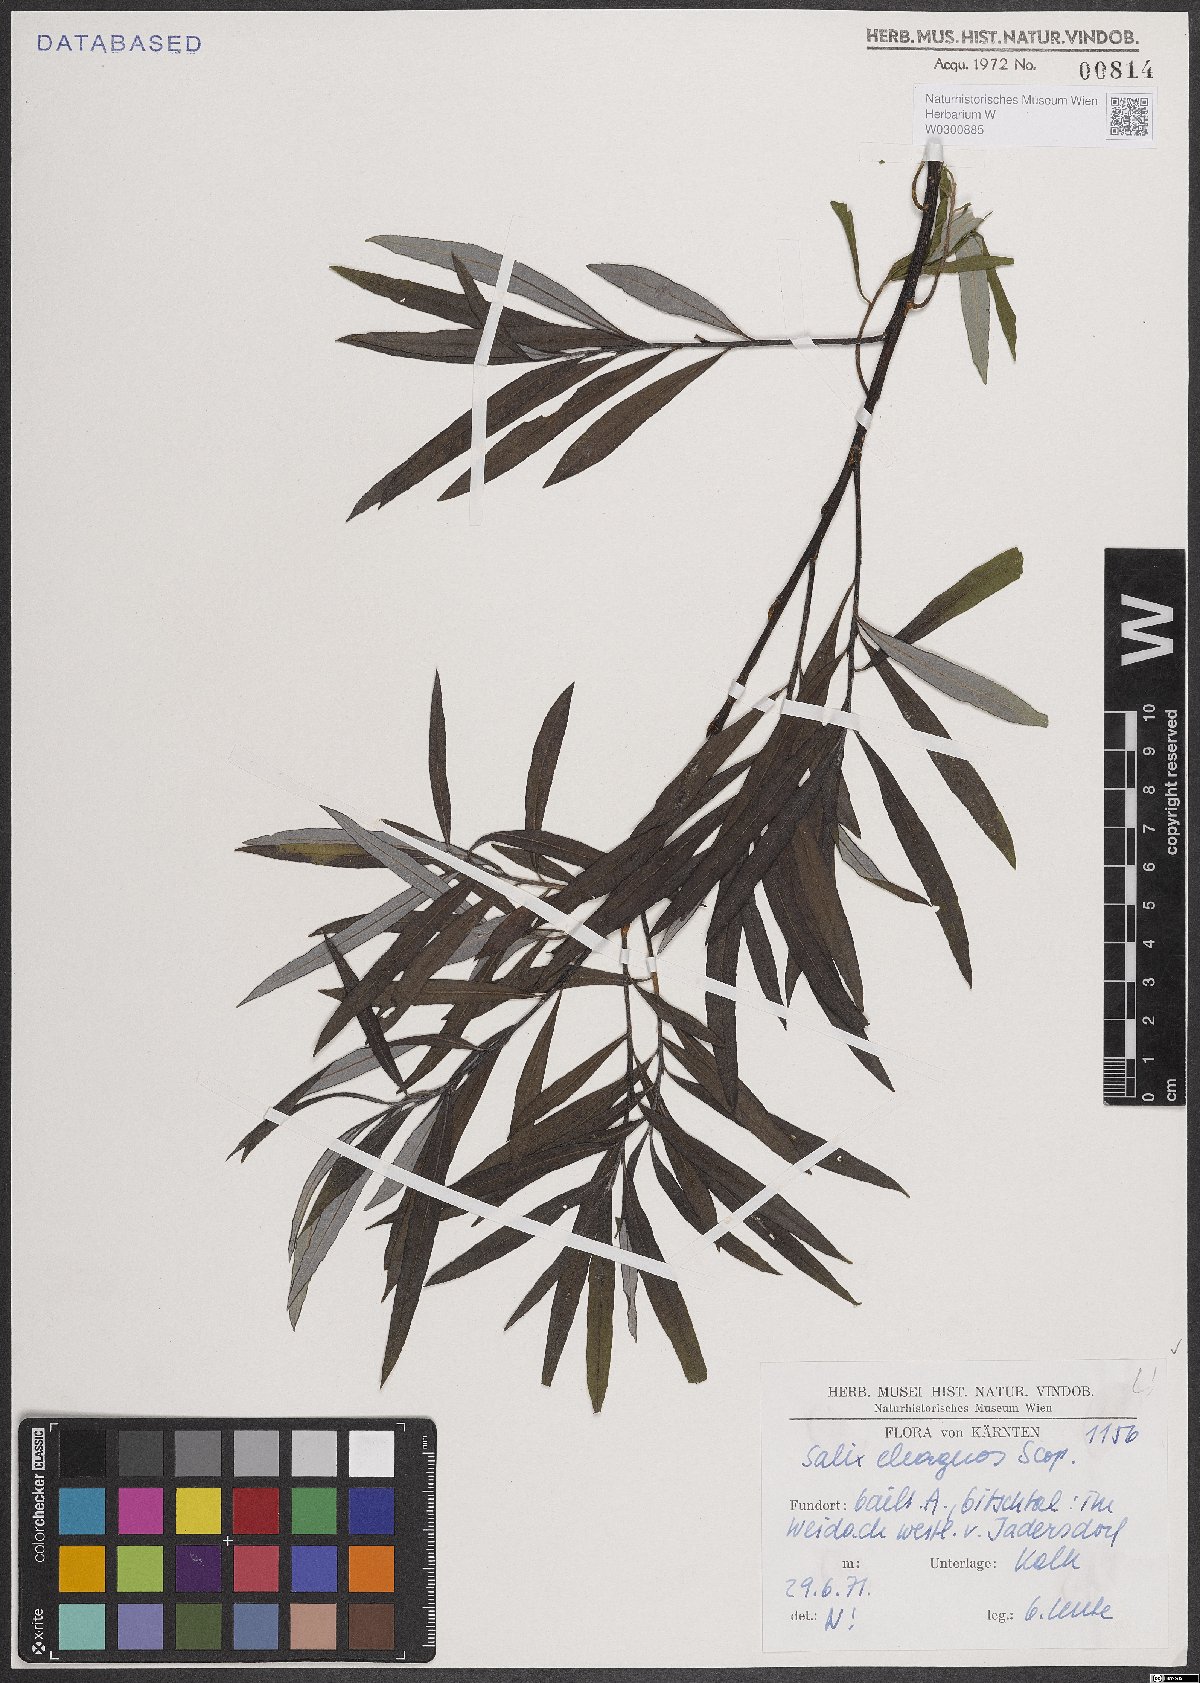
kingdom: Plantae
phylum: Tracheophyta
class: Magnoliopsida
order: Malpighiales
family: Salicaceae
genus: Salix
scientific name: Salix eleagnos
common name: Elaeagnus willow
